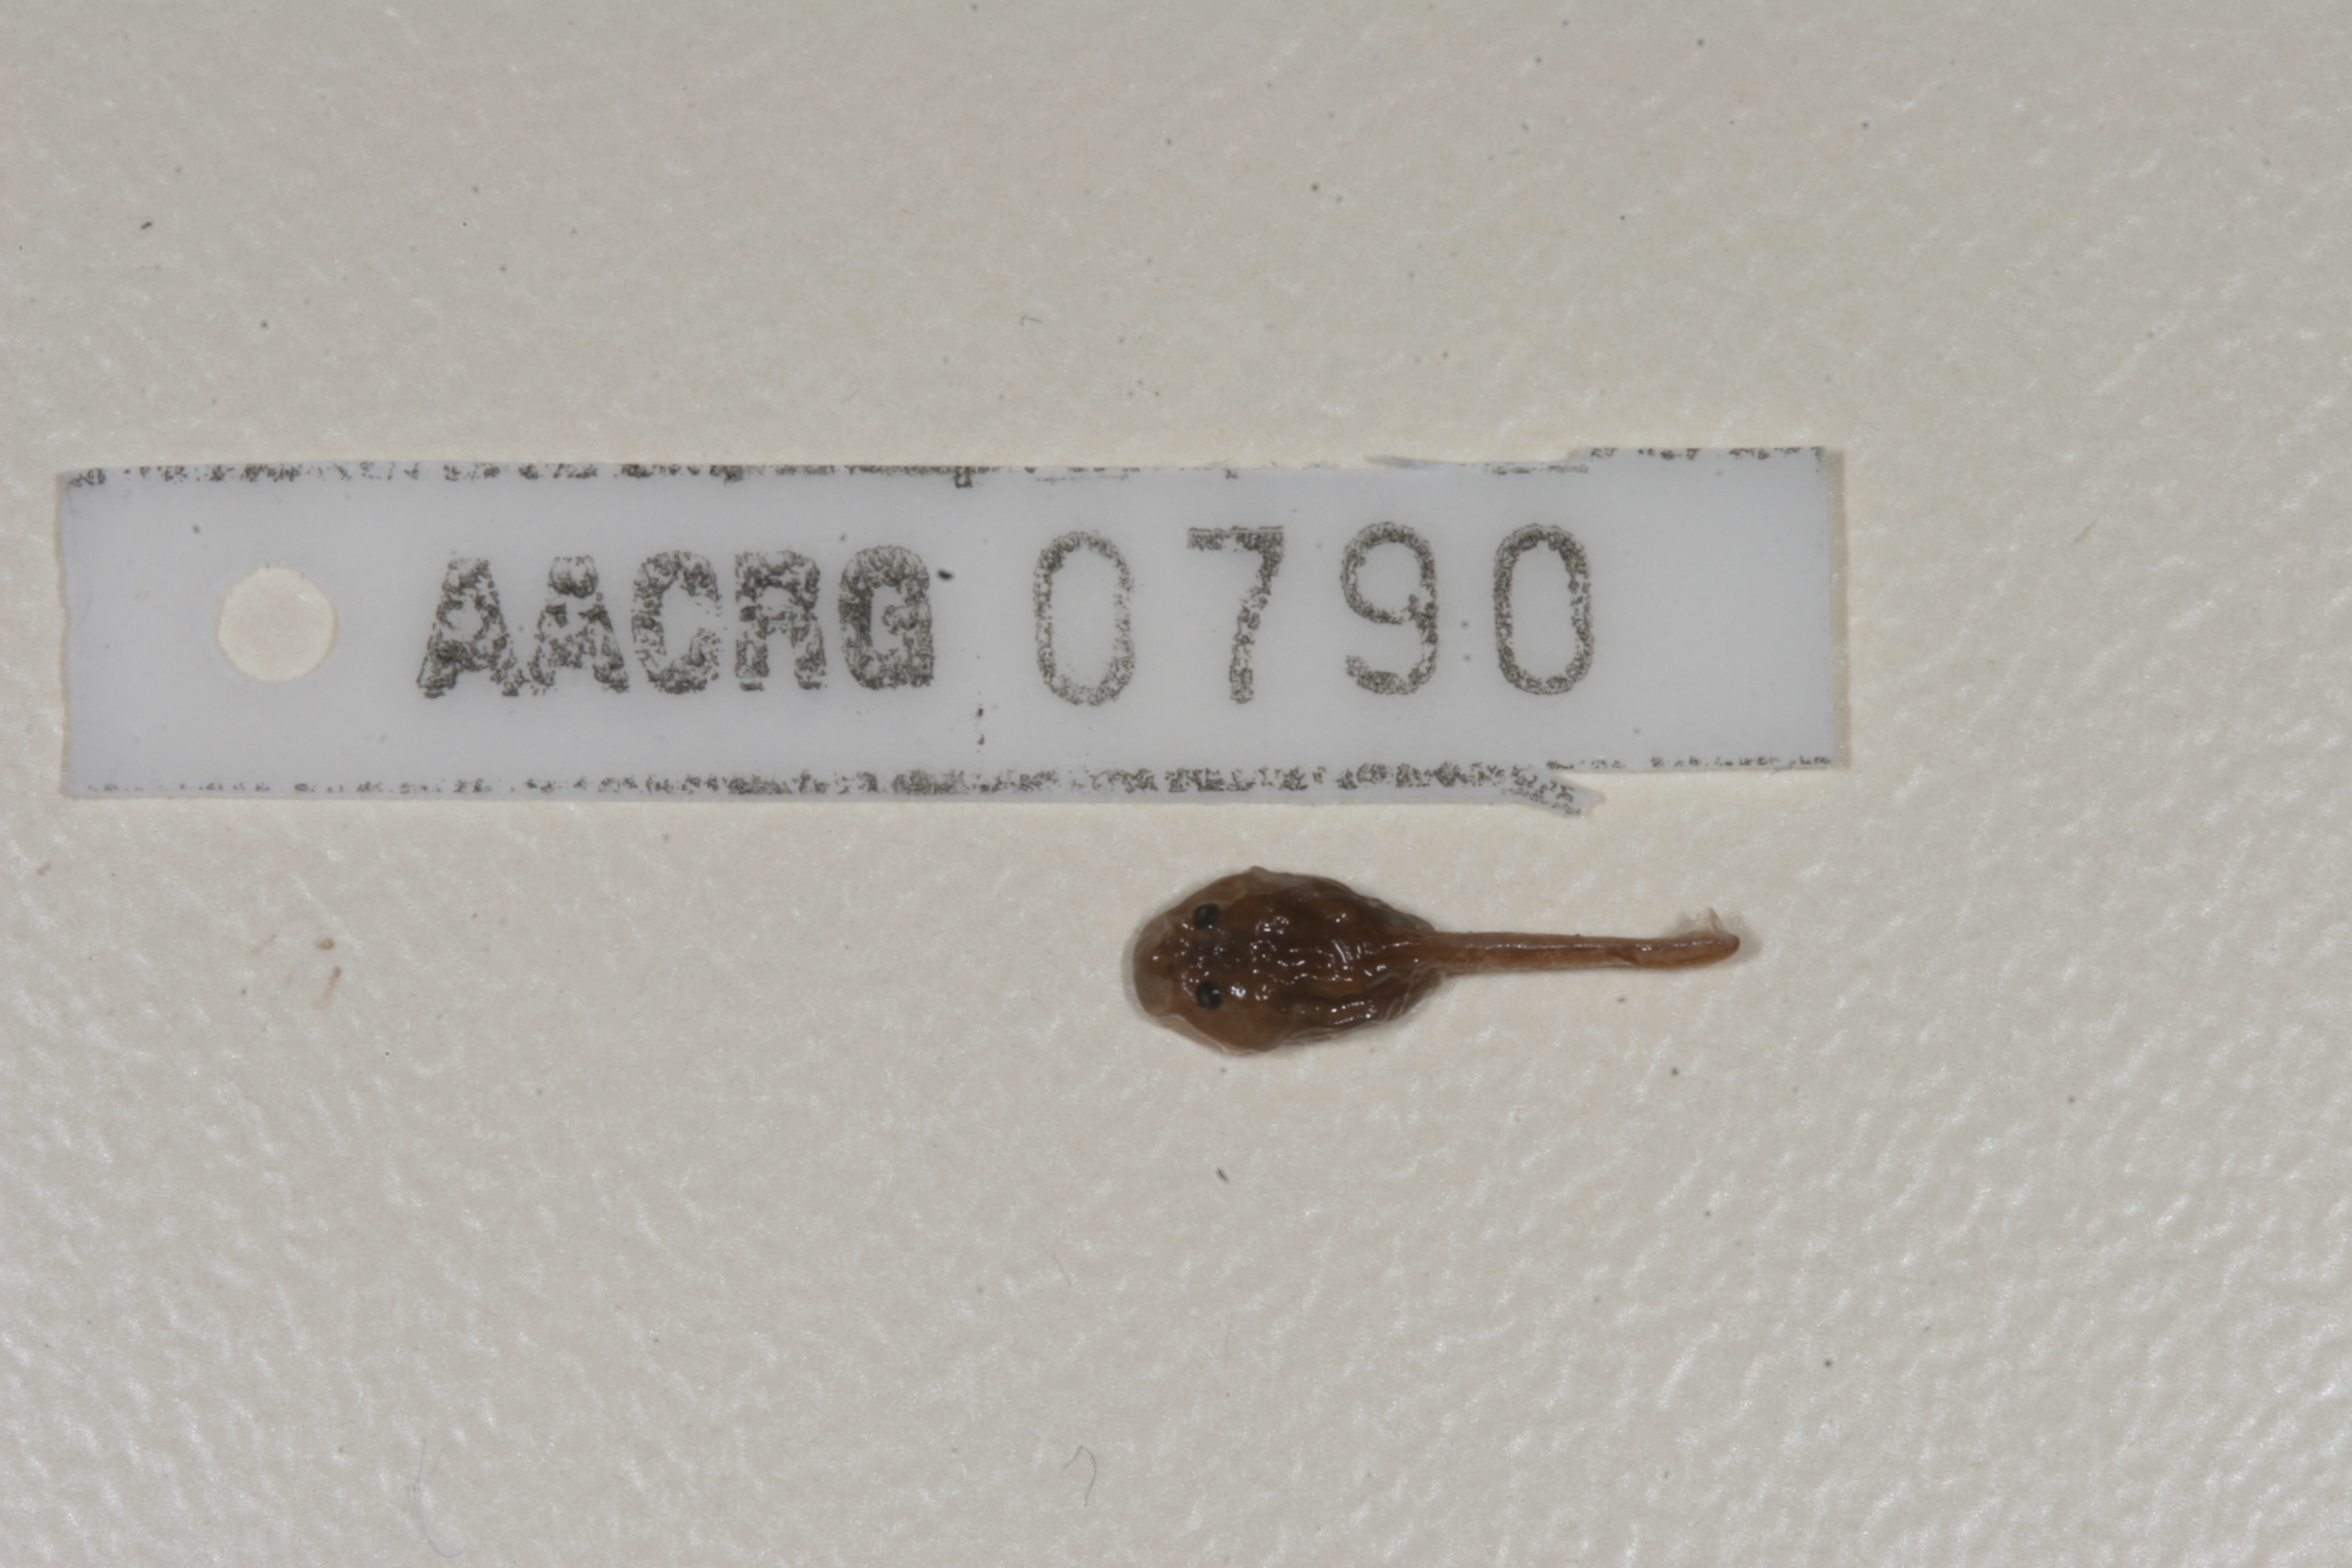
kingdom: Animalia
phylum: Chordata
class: Amphibia
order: Anura
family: Pyxicephalidae
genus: Amietia
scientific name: Amietia vandijki
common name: Van dijk's river frog
